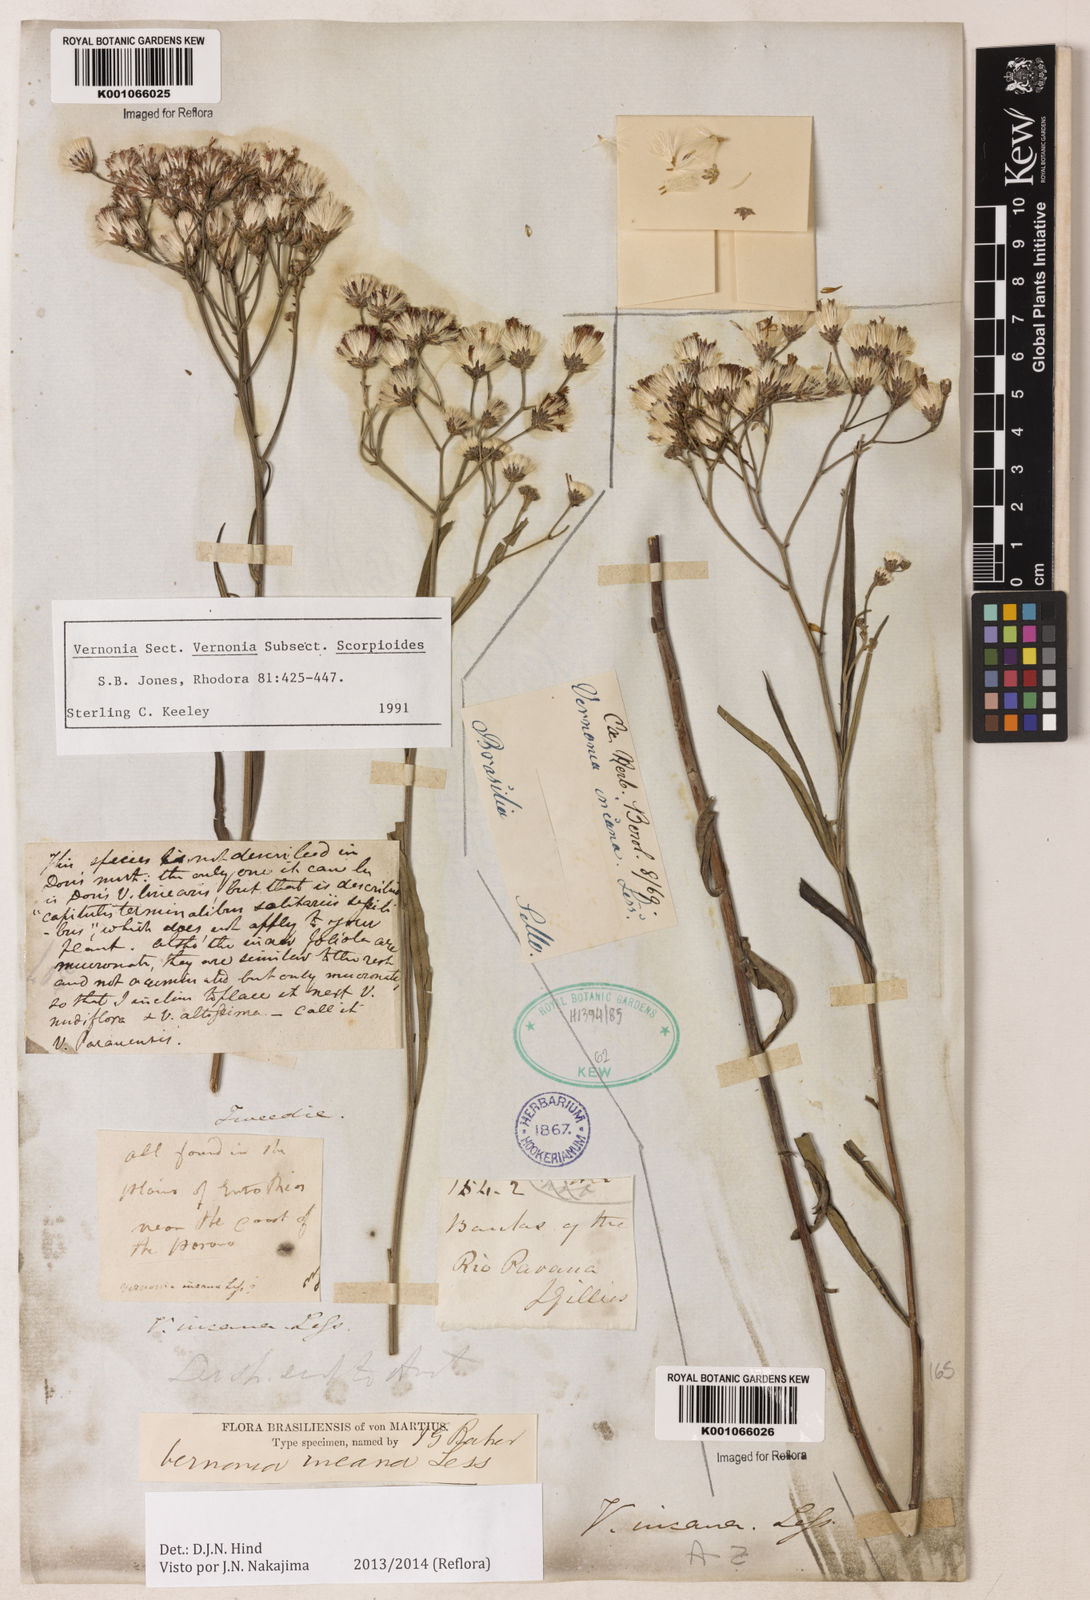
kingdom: Plantae
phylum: Tracheophyta
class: Magnoliopsida
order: Asterales
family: Asteraceae
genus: Vernonia
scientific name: Vernonia
